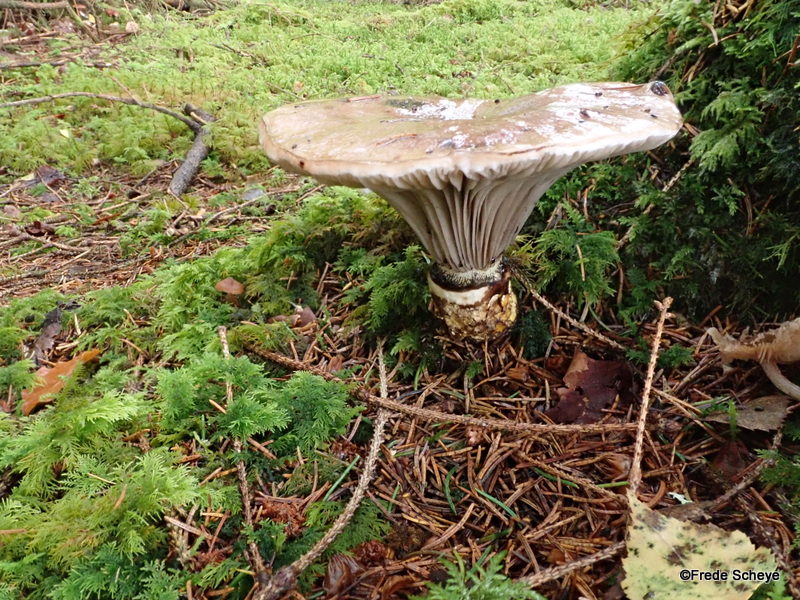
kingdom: Fungi
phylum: Basidiomycota
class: Agaricomycetes
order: Boletales
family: Gomphidiaceae
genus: Gomphidius
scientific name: Gomphidius glutinosus
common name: grå slimslør
